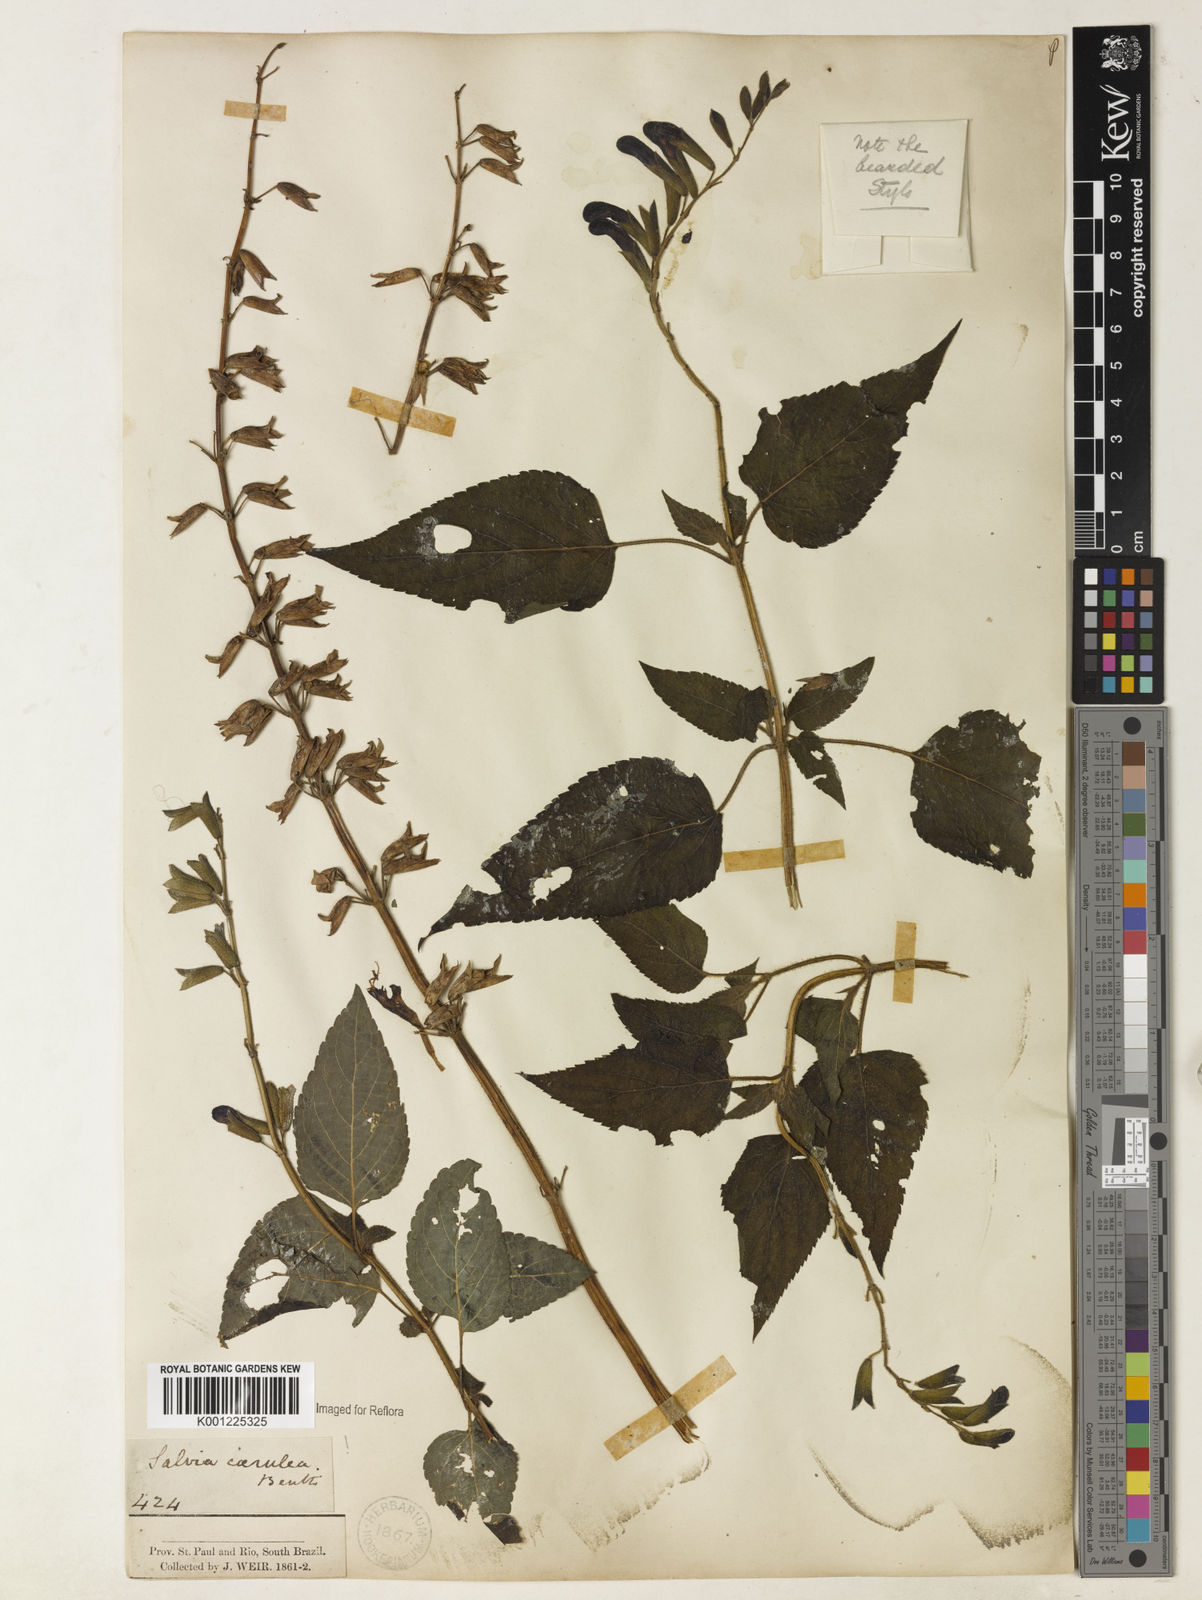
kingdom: Plantae
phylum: Tracheophyta
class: Magnoliopsida
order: Lamiales
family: Lamiaceae
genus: Salvia
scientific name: Salvia guaranitica
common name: Anise-scented sage
